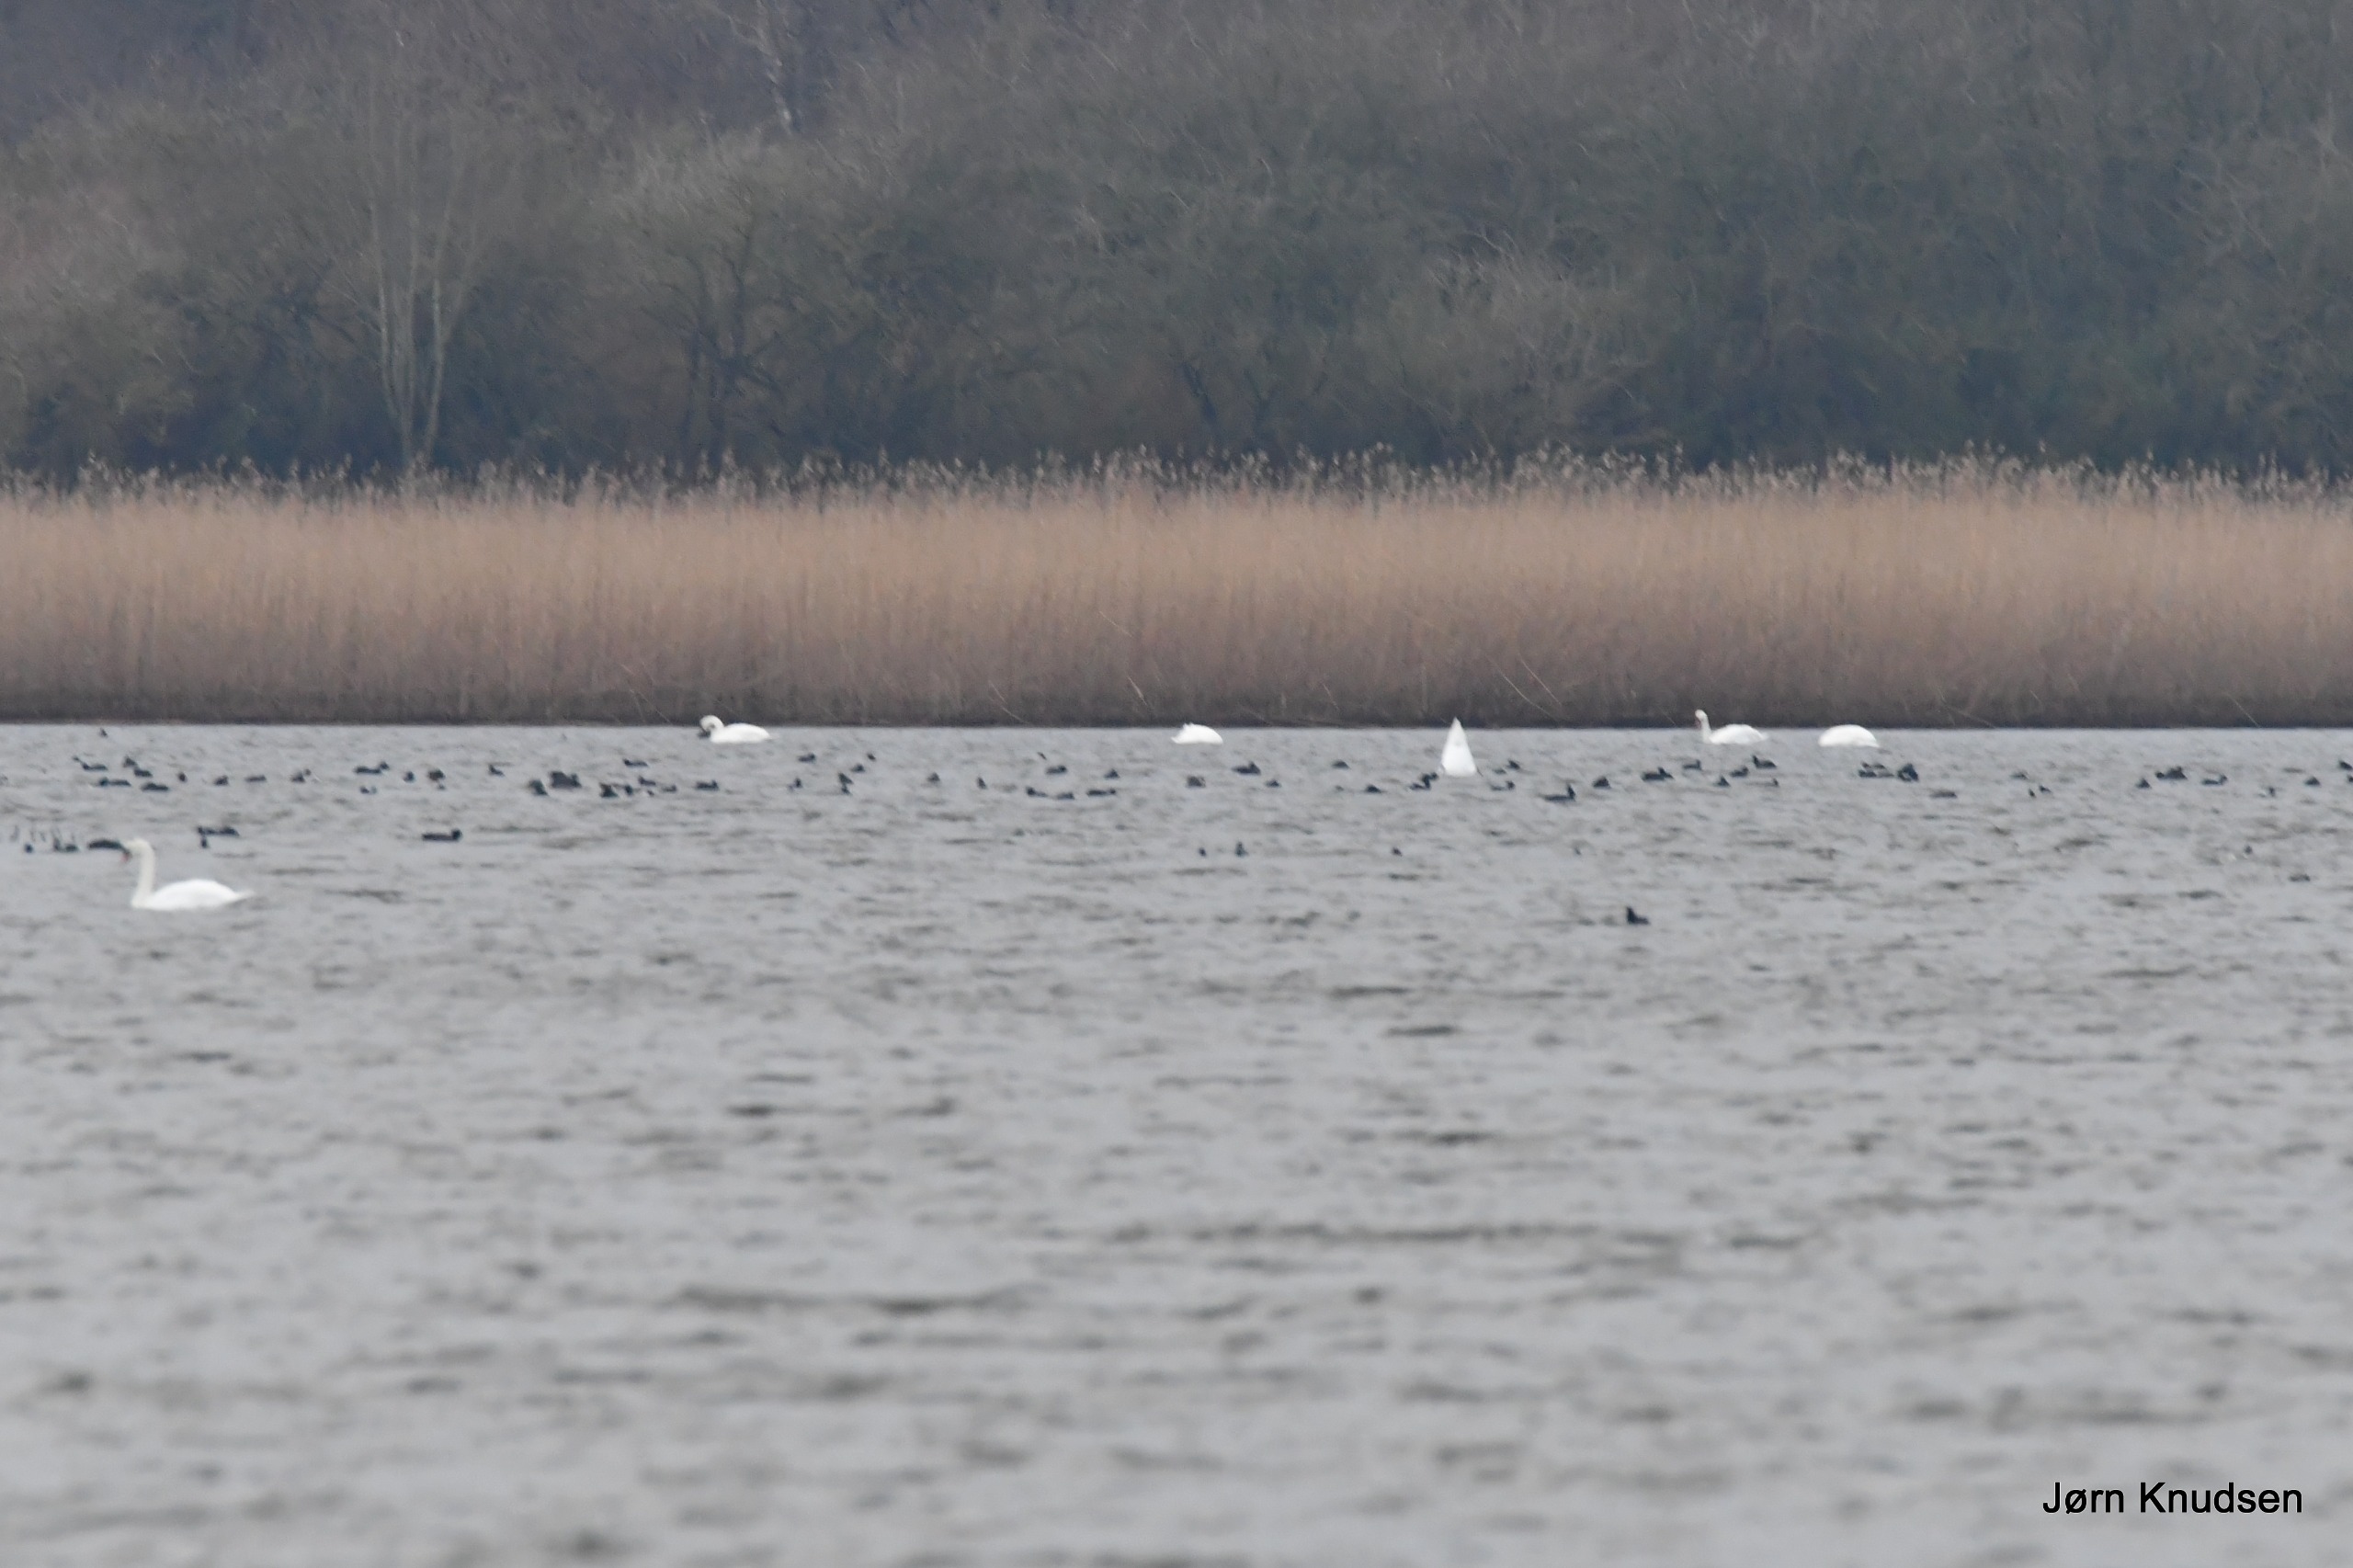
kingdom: Animalia
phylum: Chordata
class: Aves
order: Anseriformes
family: Anatidae
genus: Cygnus
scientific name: Cygnus olor
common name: Knopsvane
